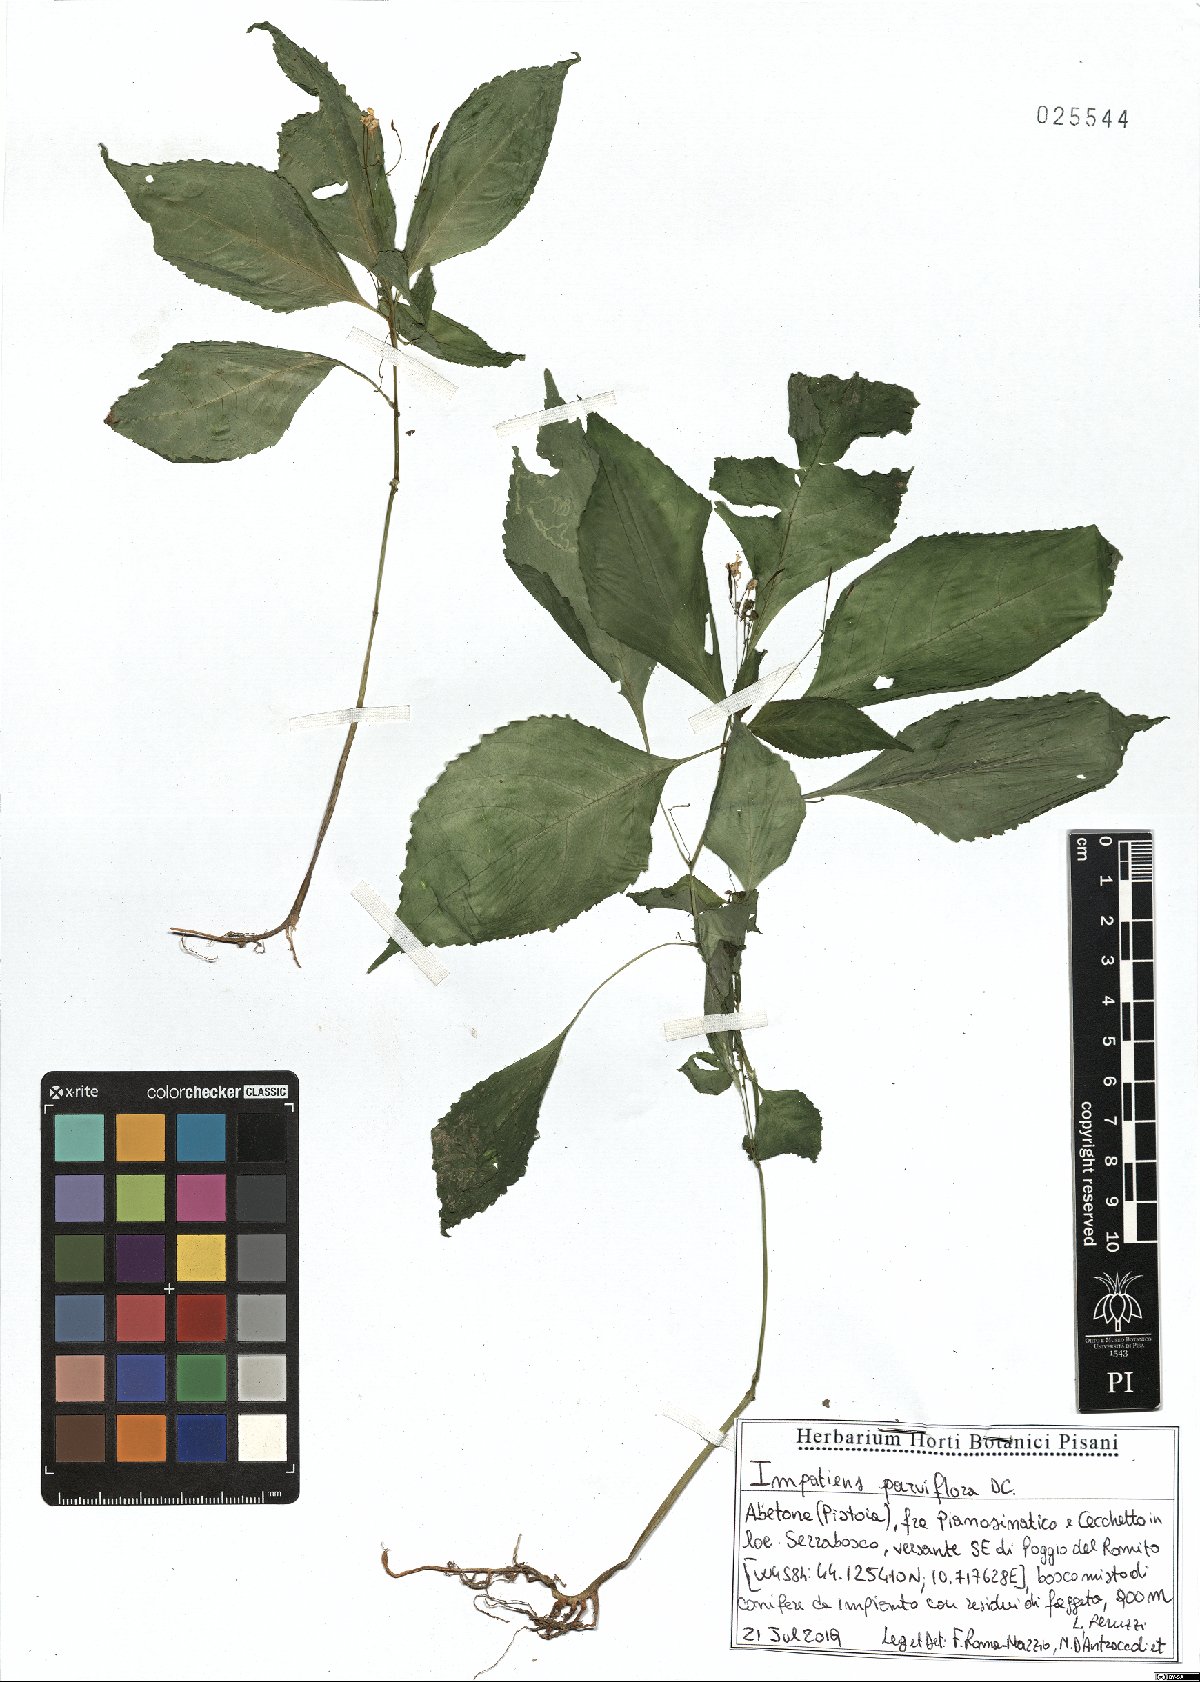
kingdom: Plantae
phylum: Tracheophyta
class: Magnoliopsida
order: Ericales
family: Balsaminaceae
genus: Impatiens
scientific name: Impatiens parviflora
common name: Small balsam
